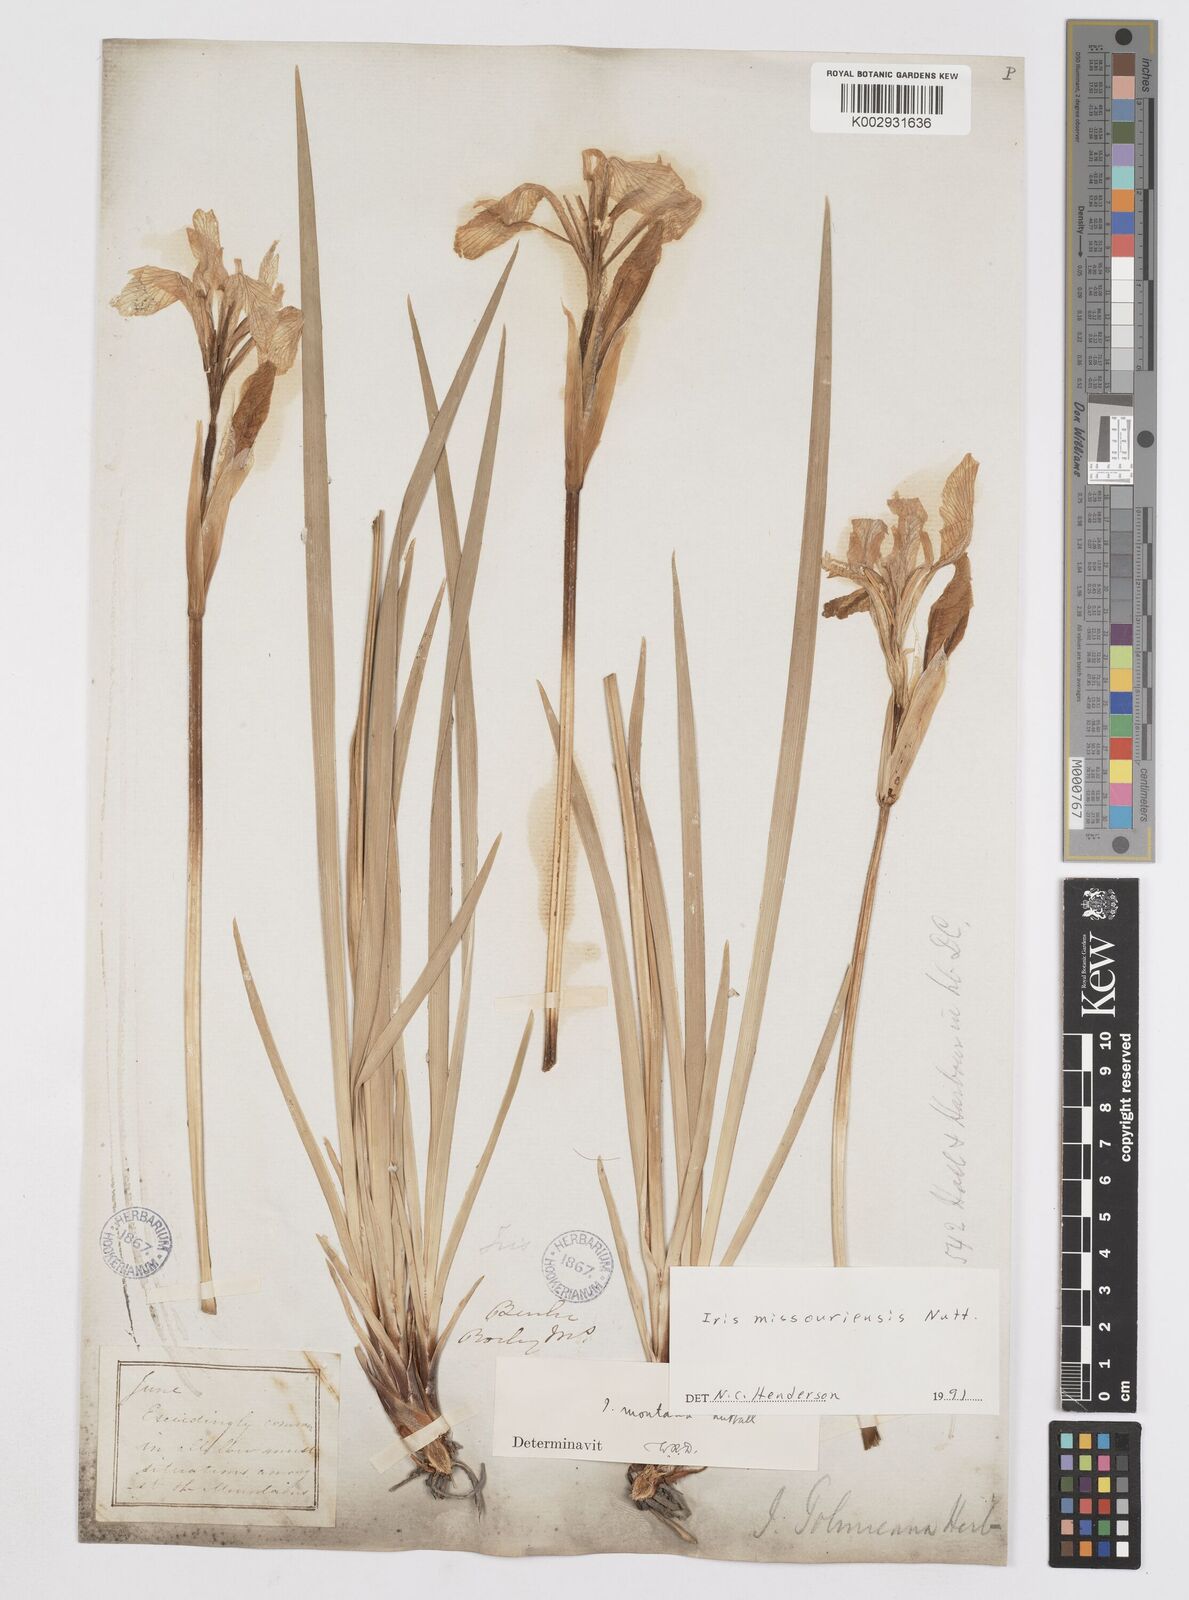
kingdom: Plantae
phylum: Tracheophyta
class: Liliopsida
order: Asparagales
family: Iridaceae
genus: Iris
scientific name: Iris missouriensis
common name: Rocky mountain iris
